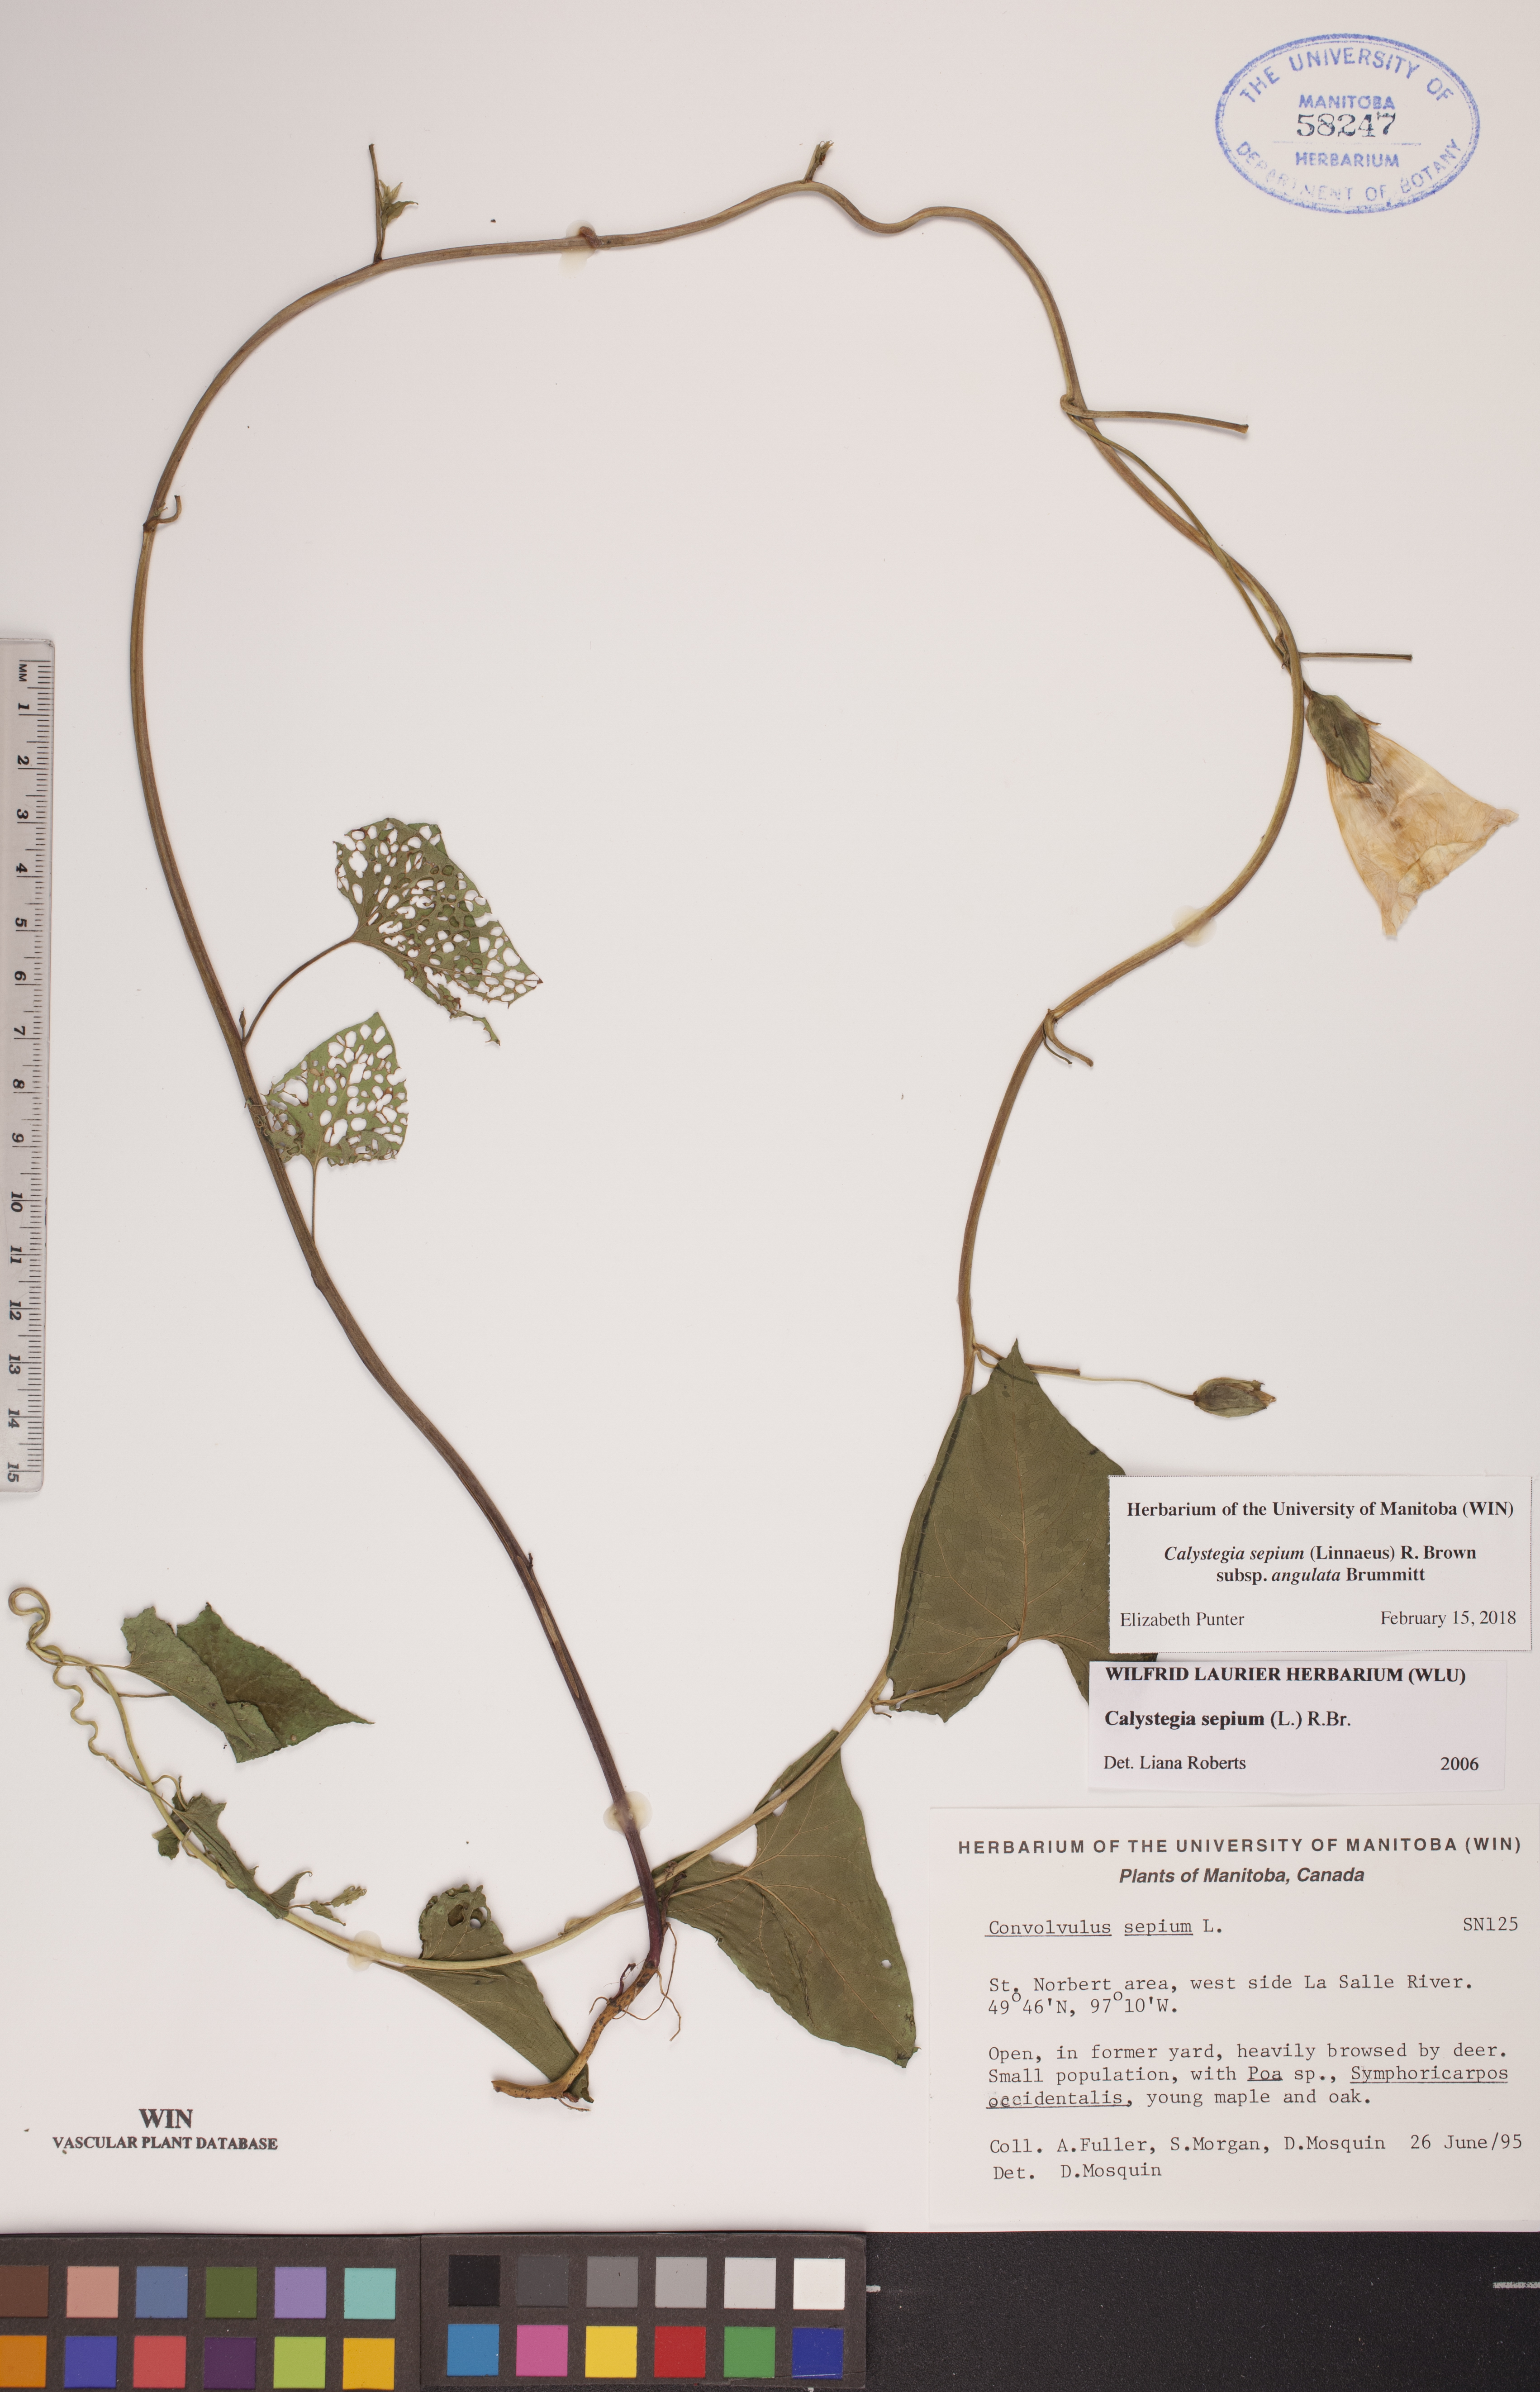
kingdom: Plantae
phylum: Tracheophyta
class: Magnoliopsida
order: Solanales
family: Convolvulaceae
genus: Calystegia
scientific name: Calystegia sepium
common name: Hedge bindweed
